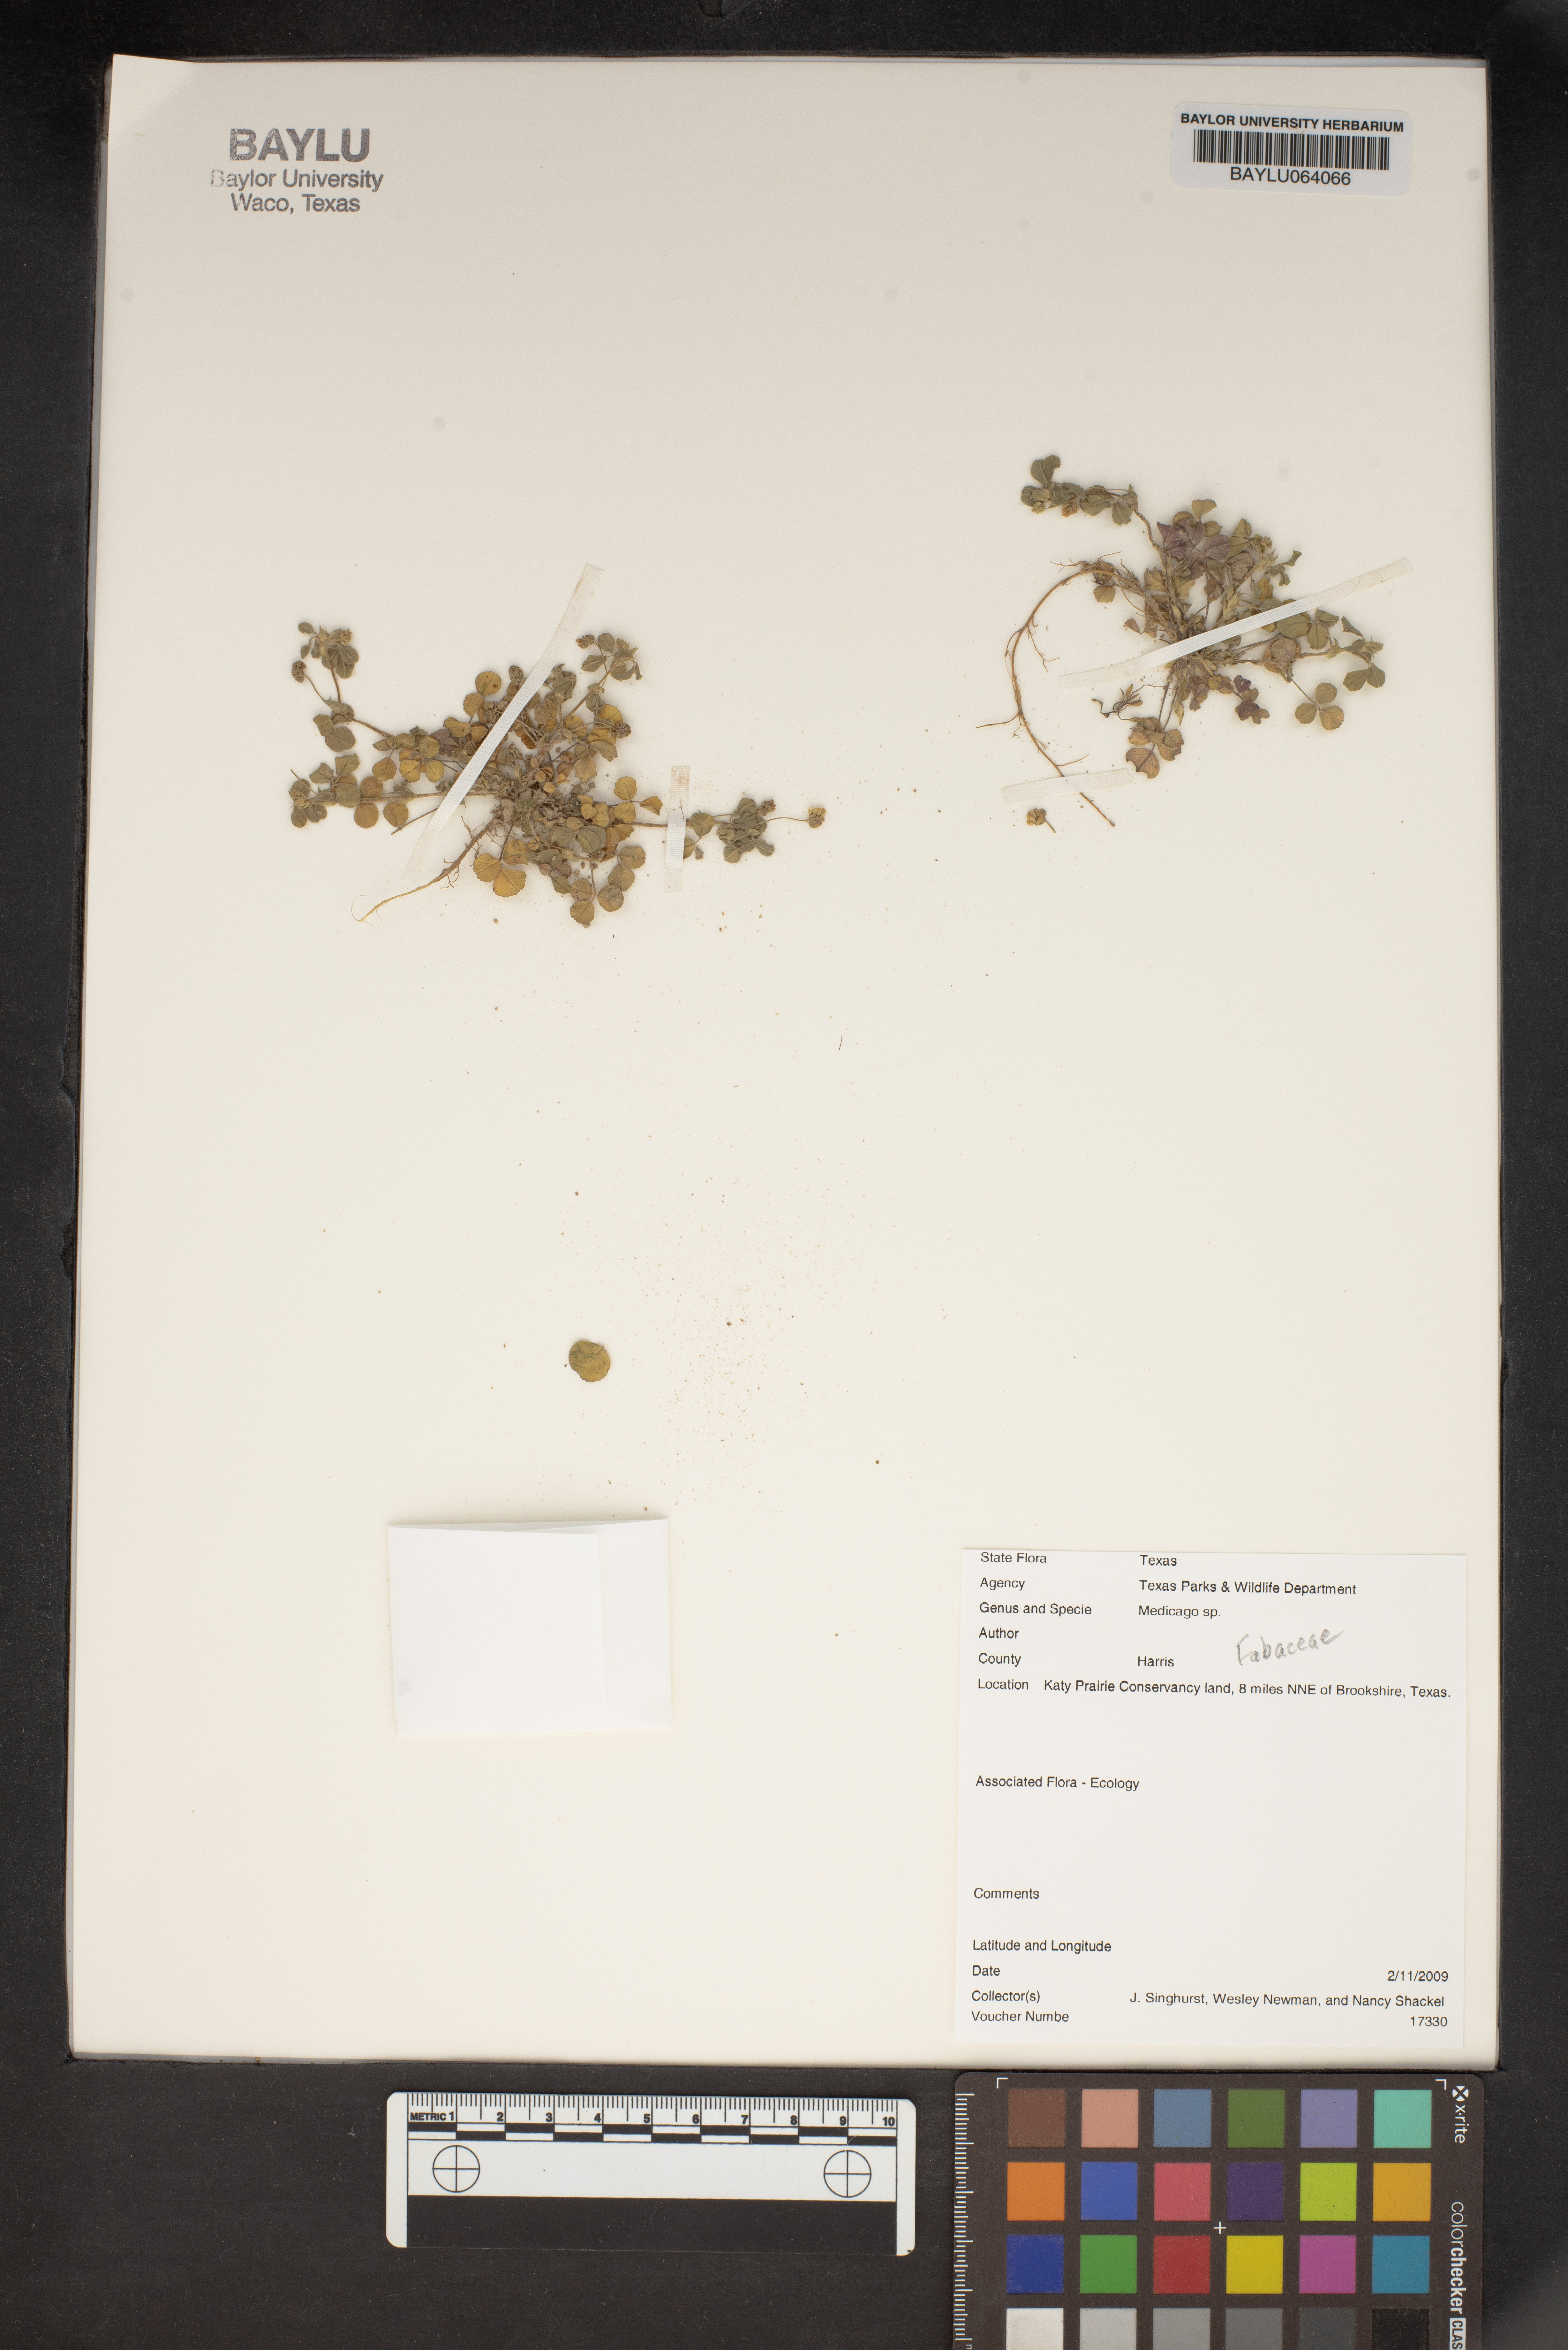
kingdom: Plantae
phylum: Tracheophyta
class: Magnoliopsida
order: Fabales
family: Fabaceae
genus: Medicago
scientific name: Medicago
